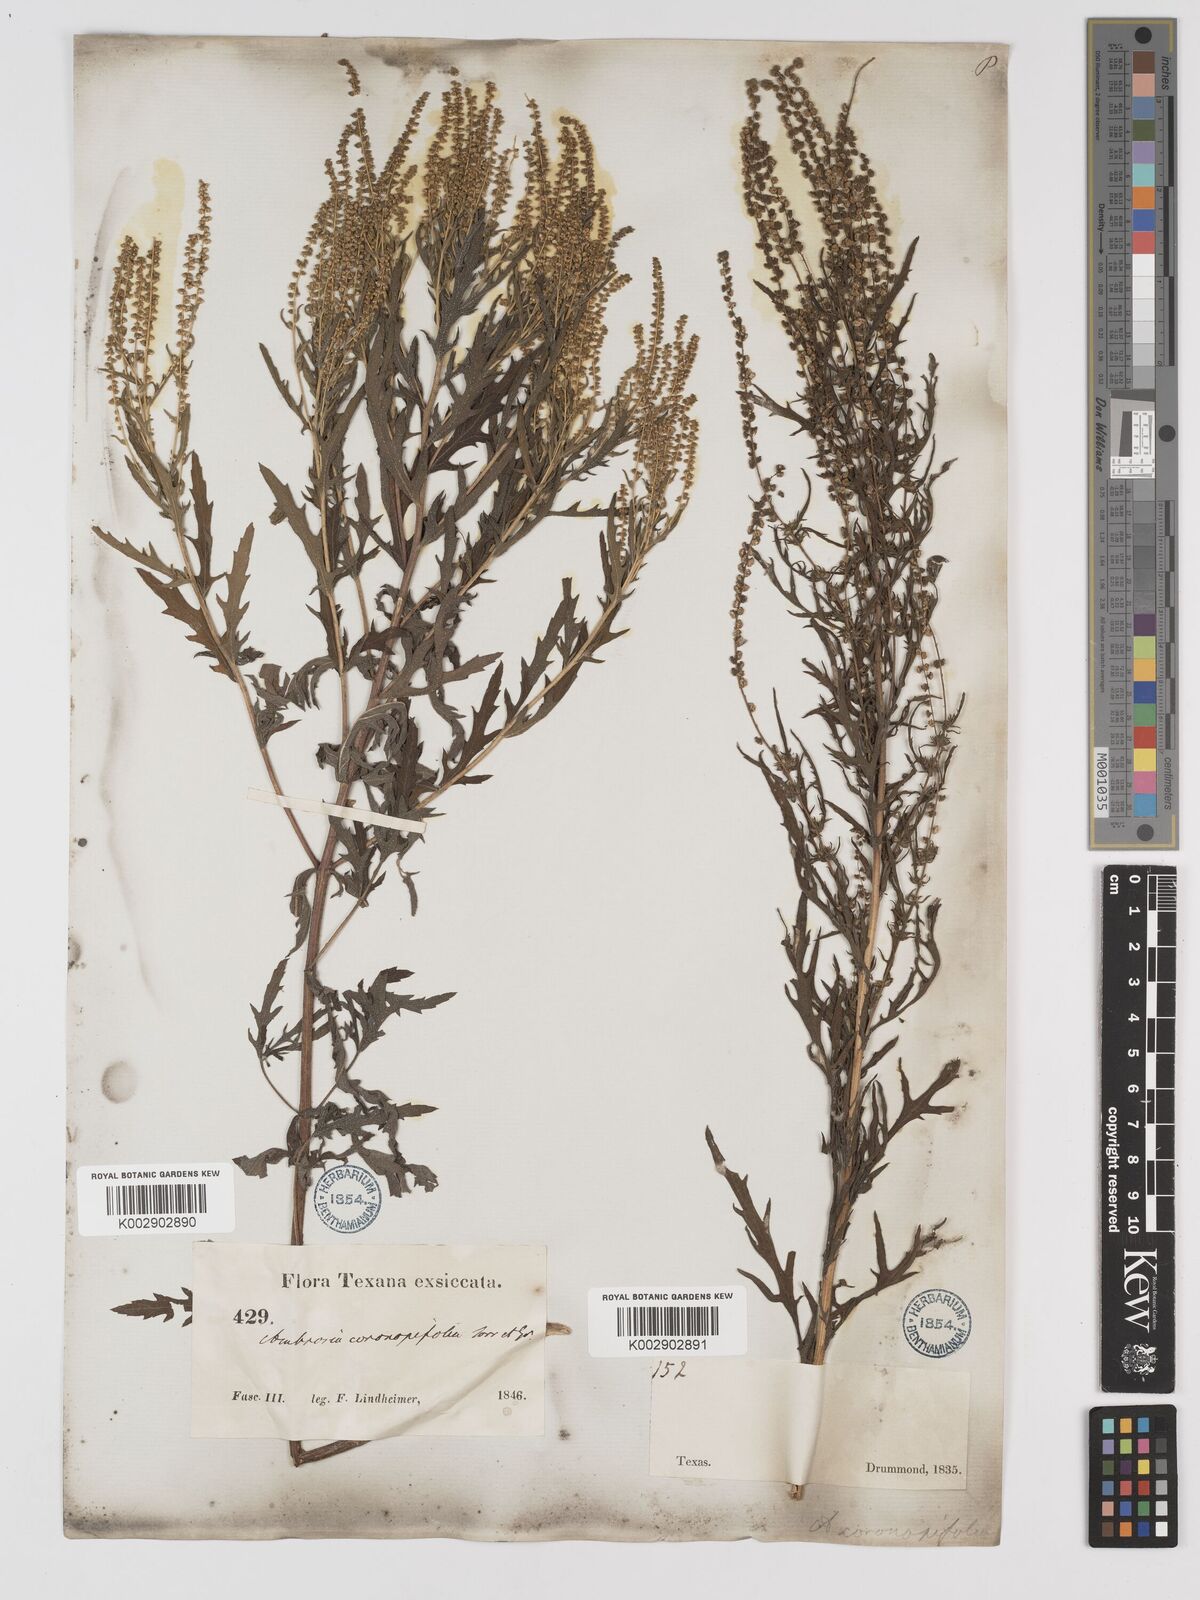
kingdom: Plantae
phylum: Tracheophyta
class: Magnoliopsida
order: Asterales
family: Asteraceae
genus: Ambrosia
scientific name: Ambrosia psilostachya
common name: Perennial ragweed
